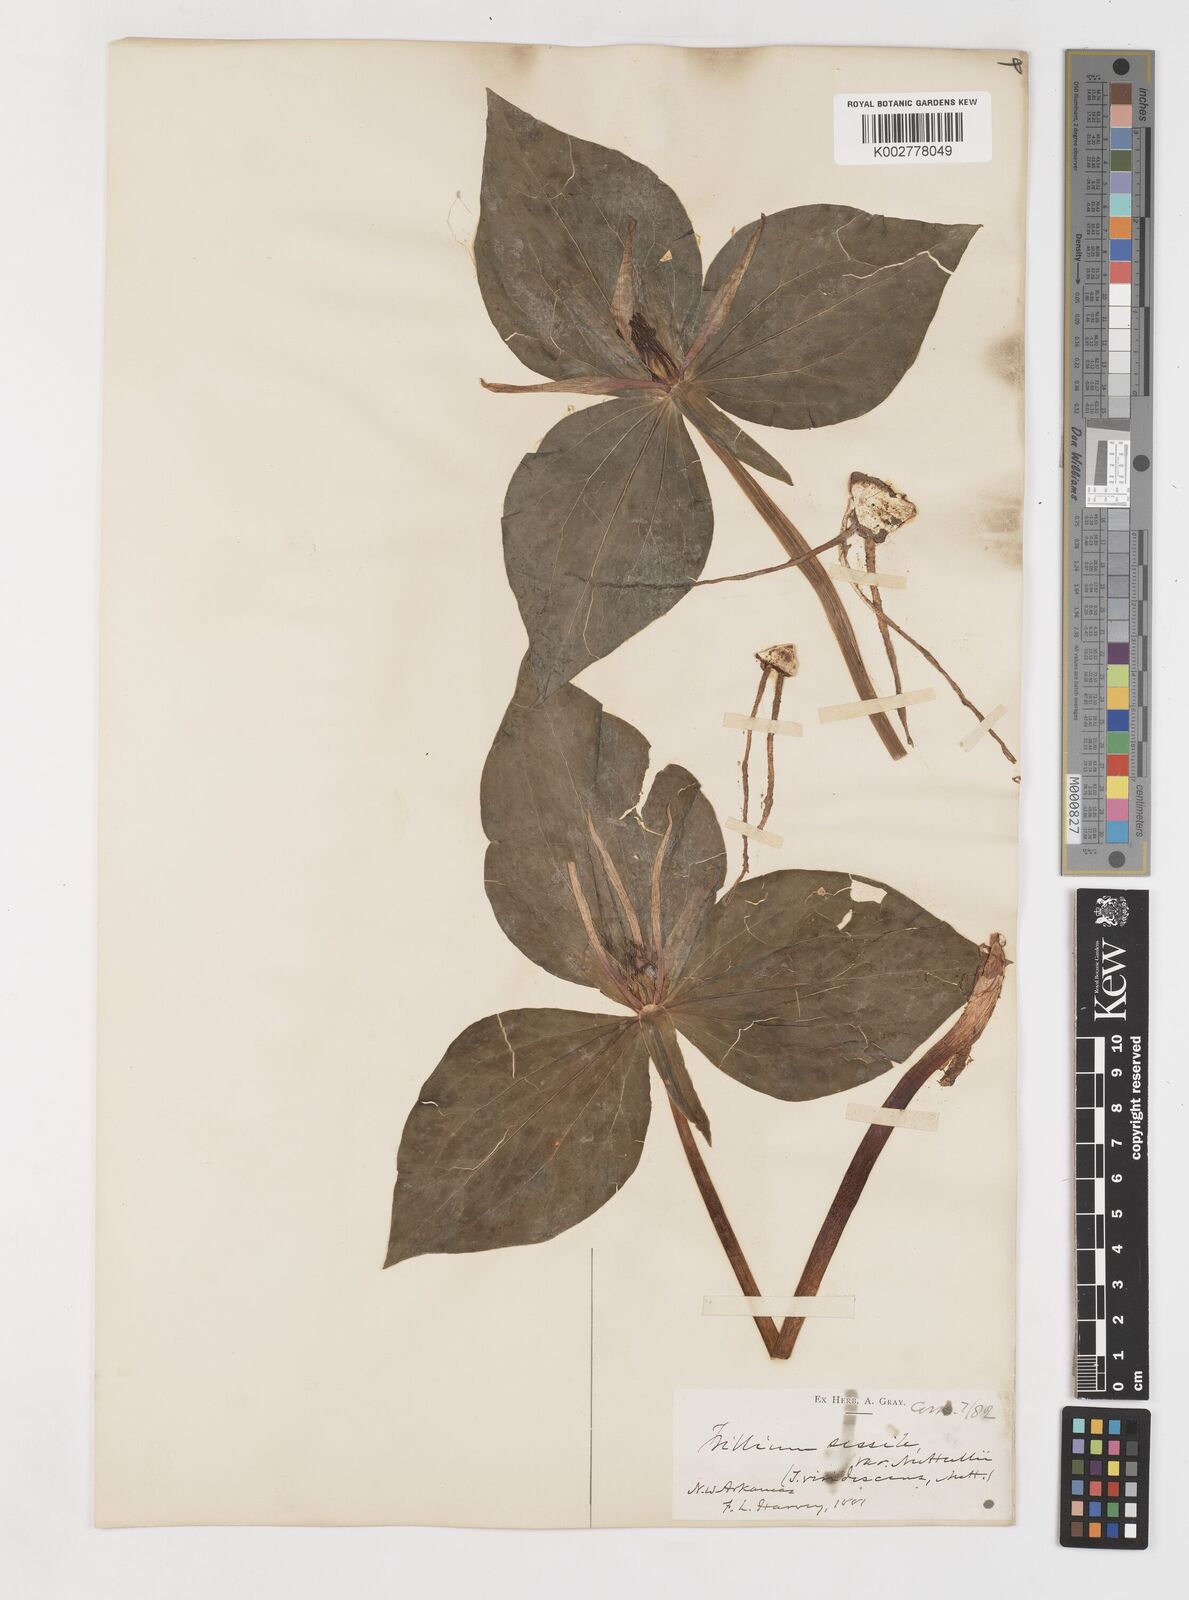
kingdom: Plantae
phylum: Tracheophyta
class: Liliopsida
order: Liliales
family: Melanthiaceae
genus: Trillium
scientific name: Trillium viridescens
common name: Ozark green trillium
